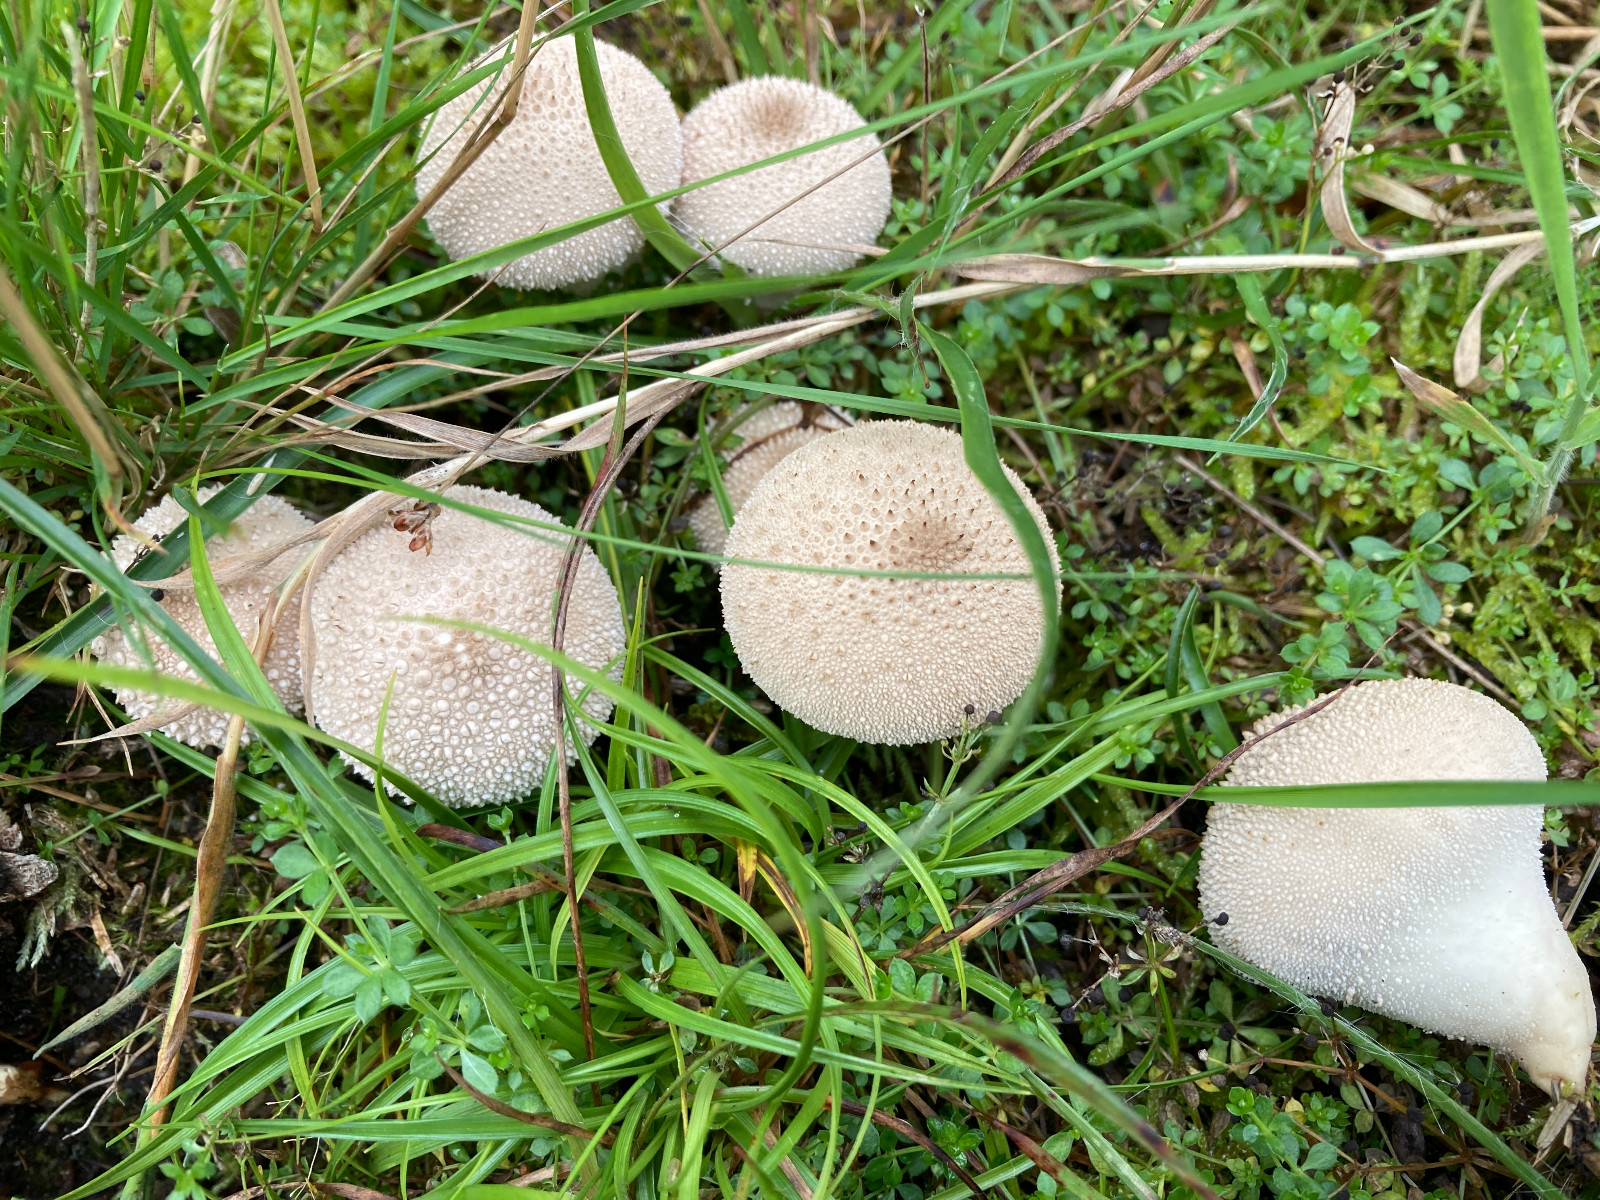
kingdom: Fungi
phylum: Basidiomycota
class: Agaricomycetes
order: Agaricales
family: Lycoperdaceae
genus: Lycoperdon
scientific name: Lycoperdon perlatum
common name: krystal-støvbold
